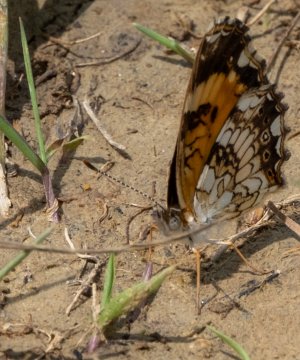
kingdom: Animalia
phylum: Arthropoda
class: Insecta
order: Lepidoptera
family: Nymphalidae
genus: Chlosyne
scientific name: Chlosyne nycteis
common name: Silvery Checkerspot
